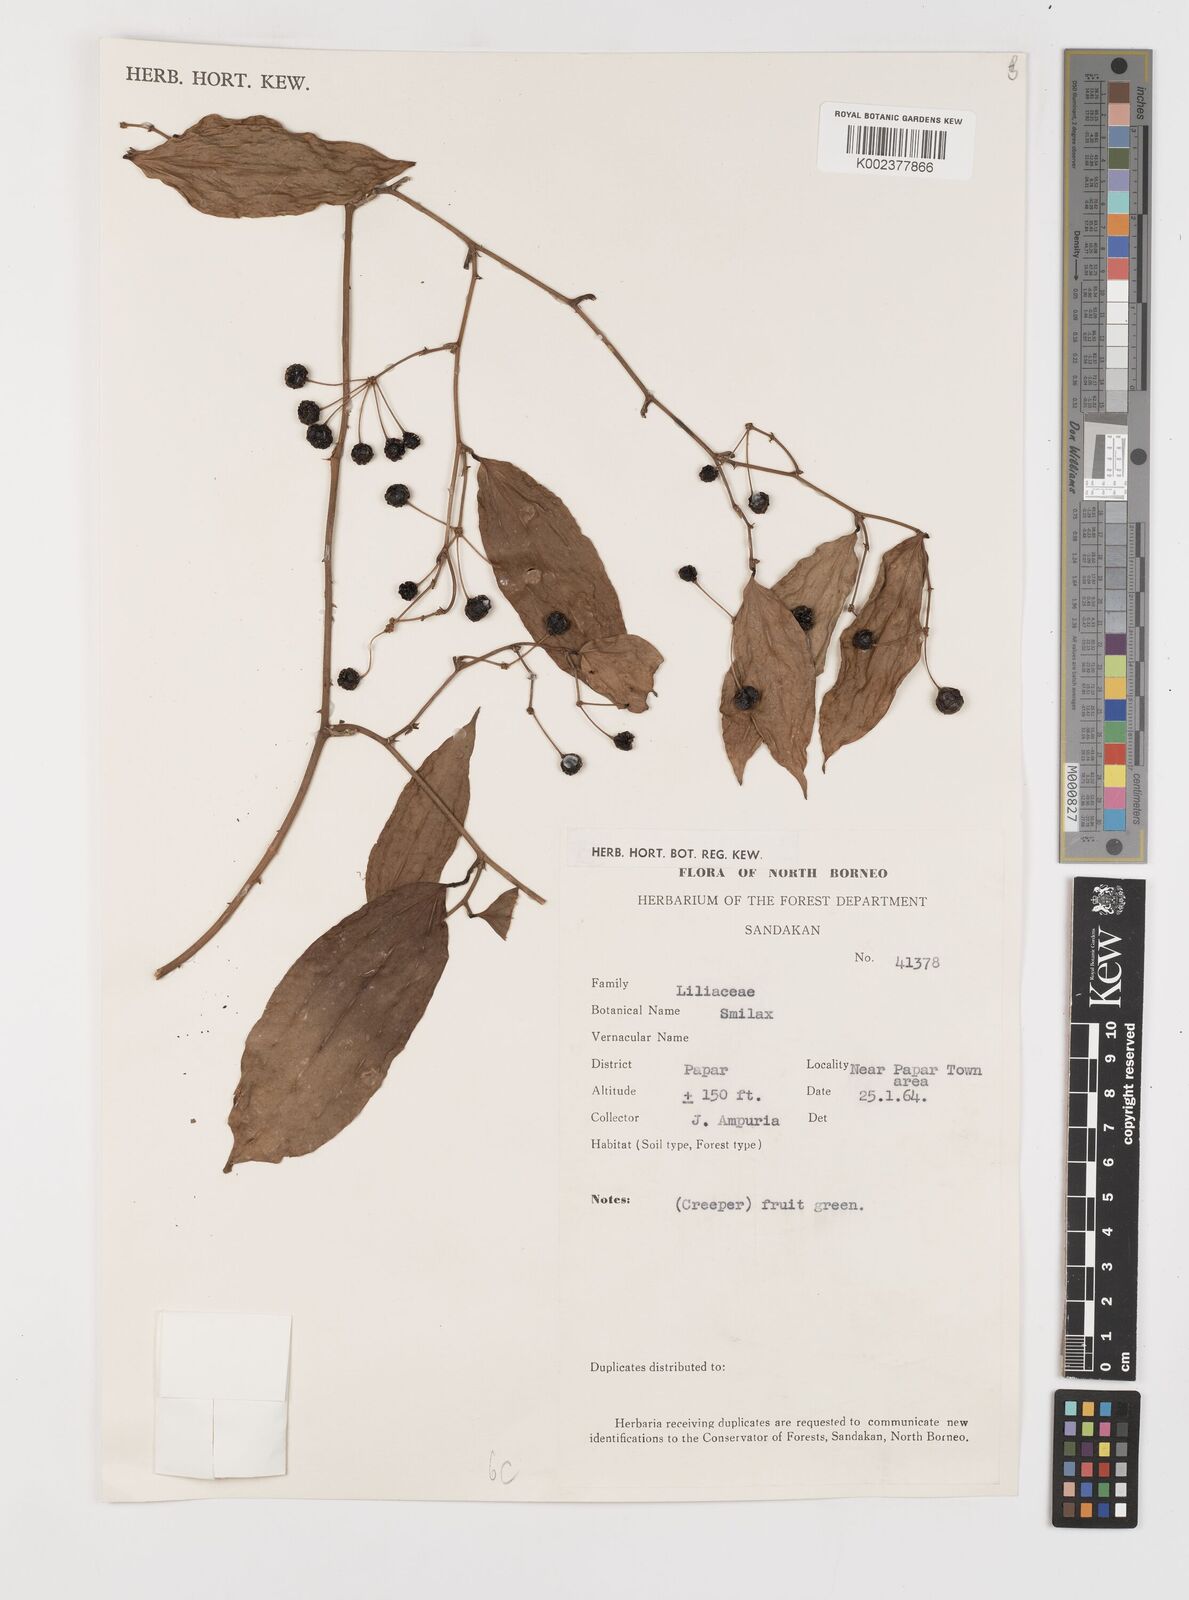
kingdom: Plantae
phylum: Tracheophyta
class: Liliopsida
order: Liliales
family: Smilacaceae
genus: Smilax
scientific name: Smilax
